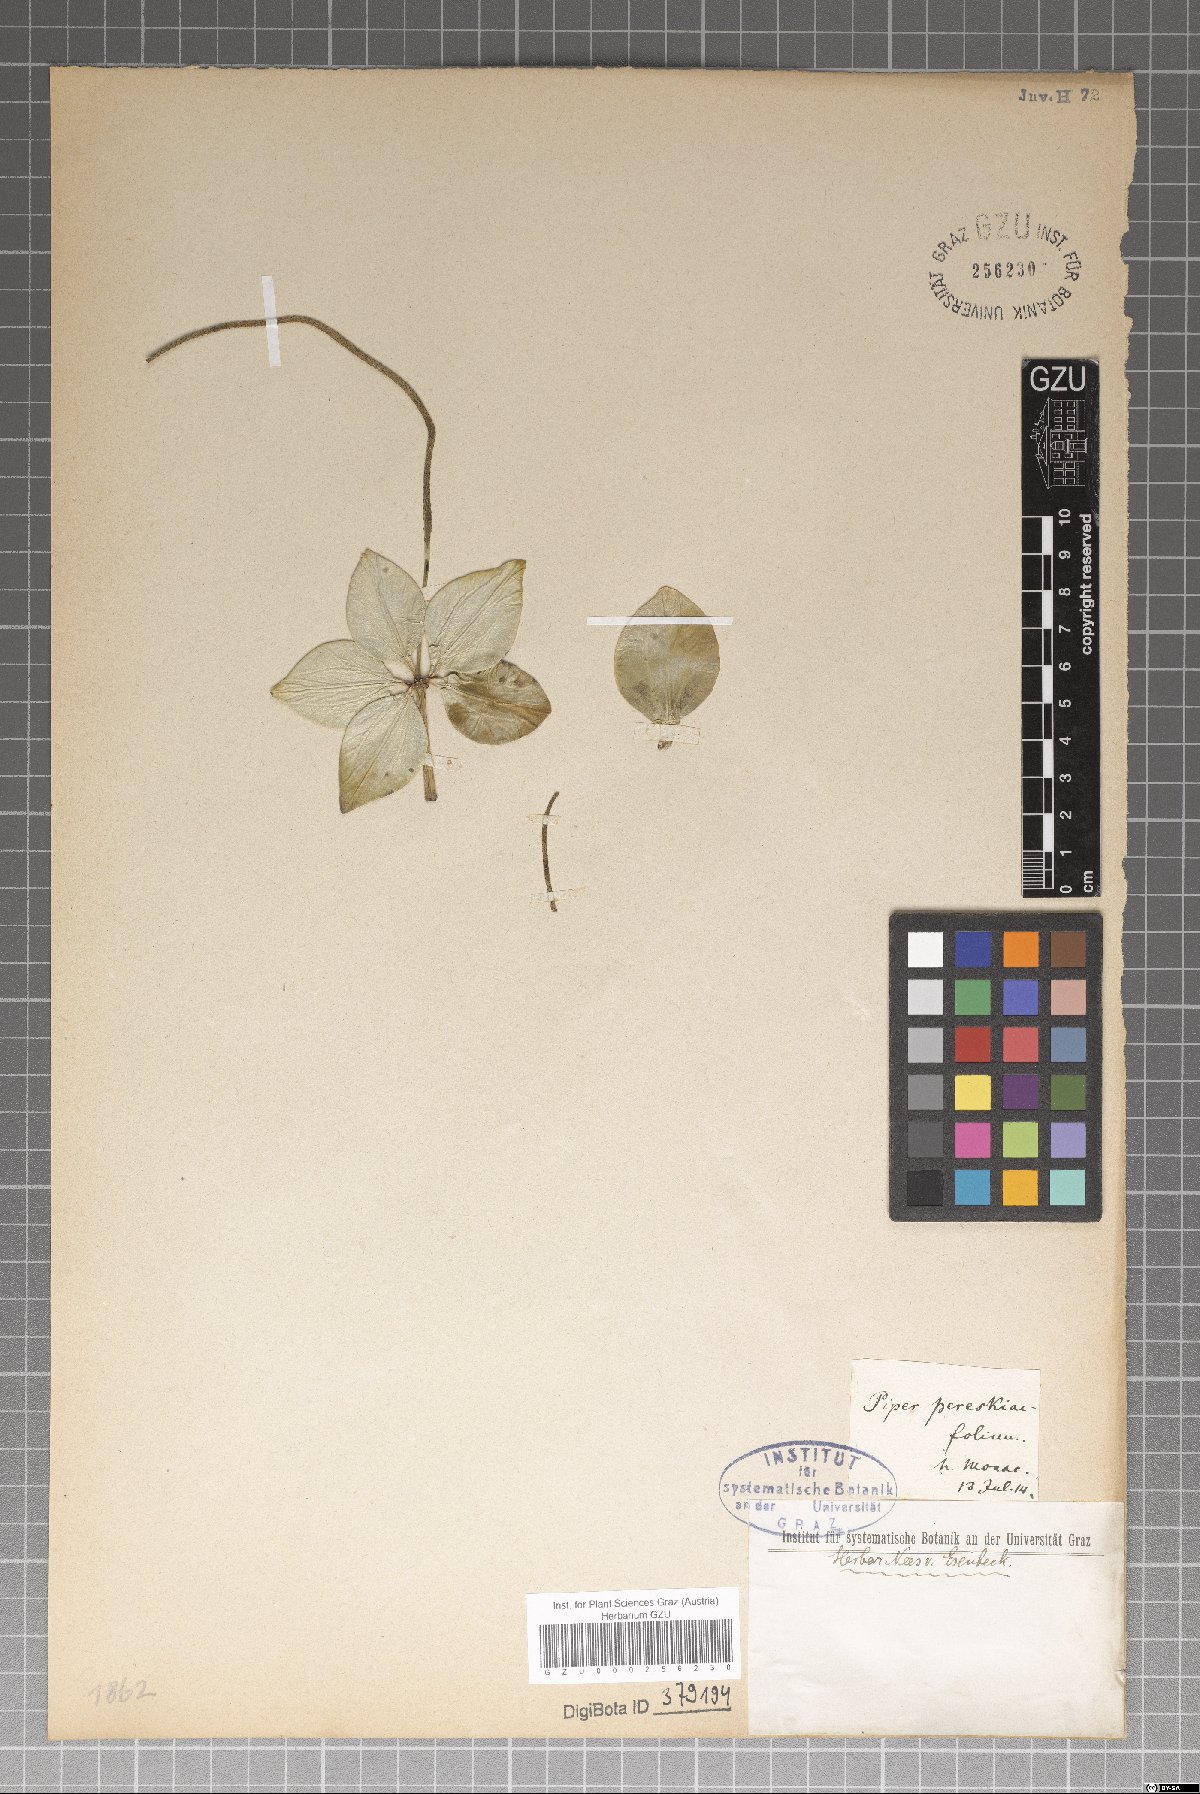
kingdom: Plantae
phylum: Tracheophyta
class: Magnoliopsida
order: Piperales
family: Piperaceae
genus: Peperomia
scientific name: Peperomia pereskiifolia
